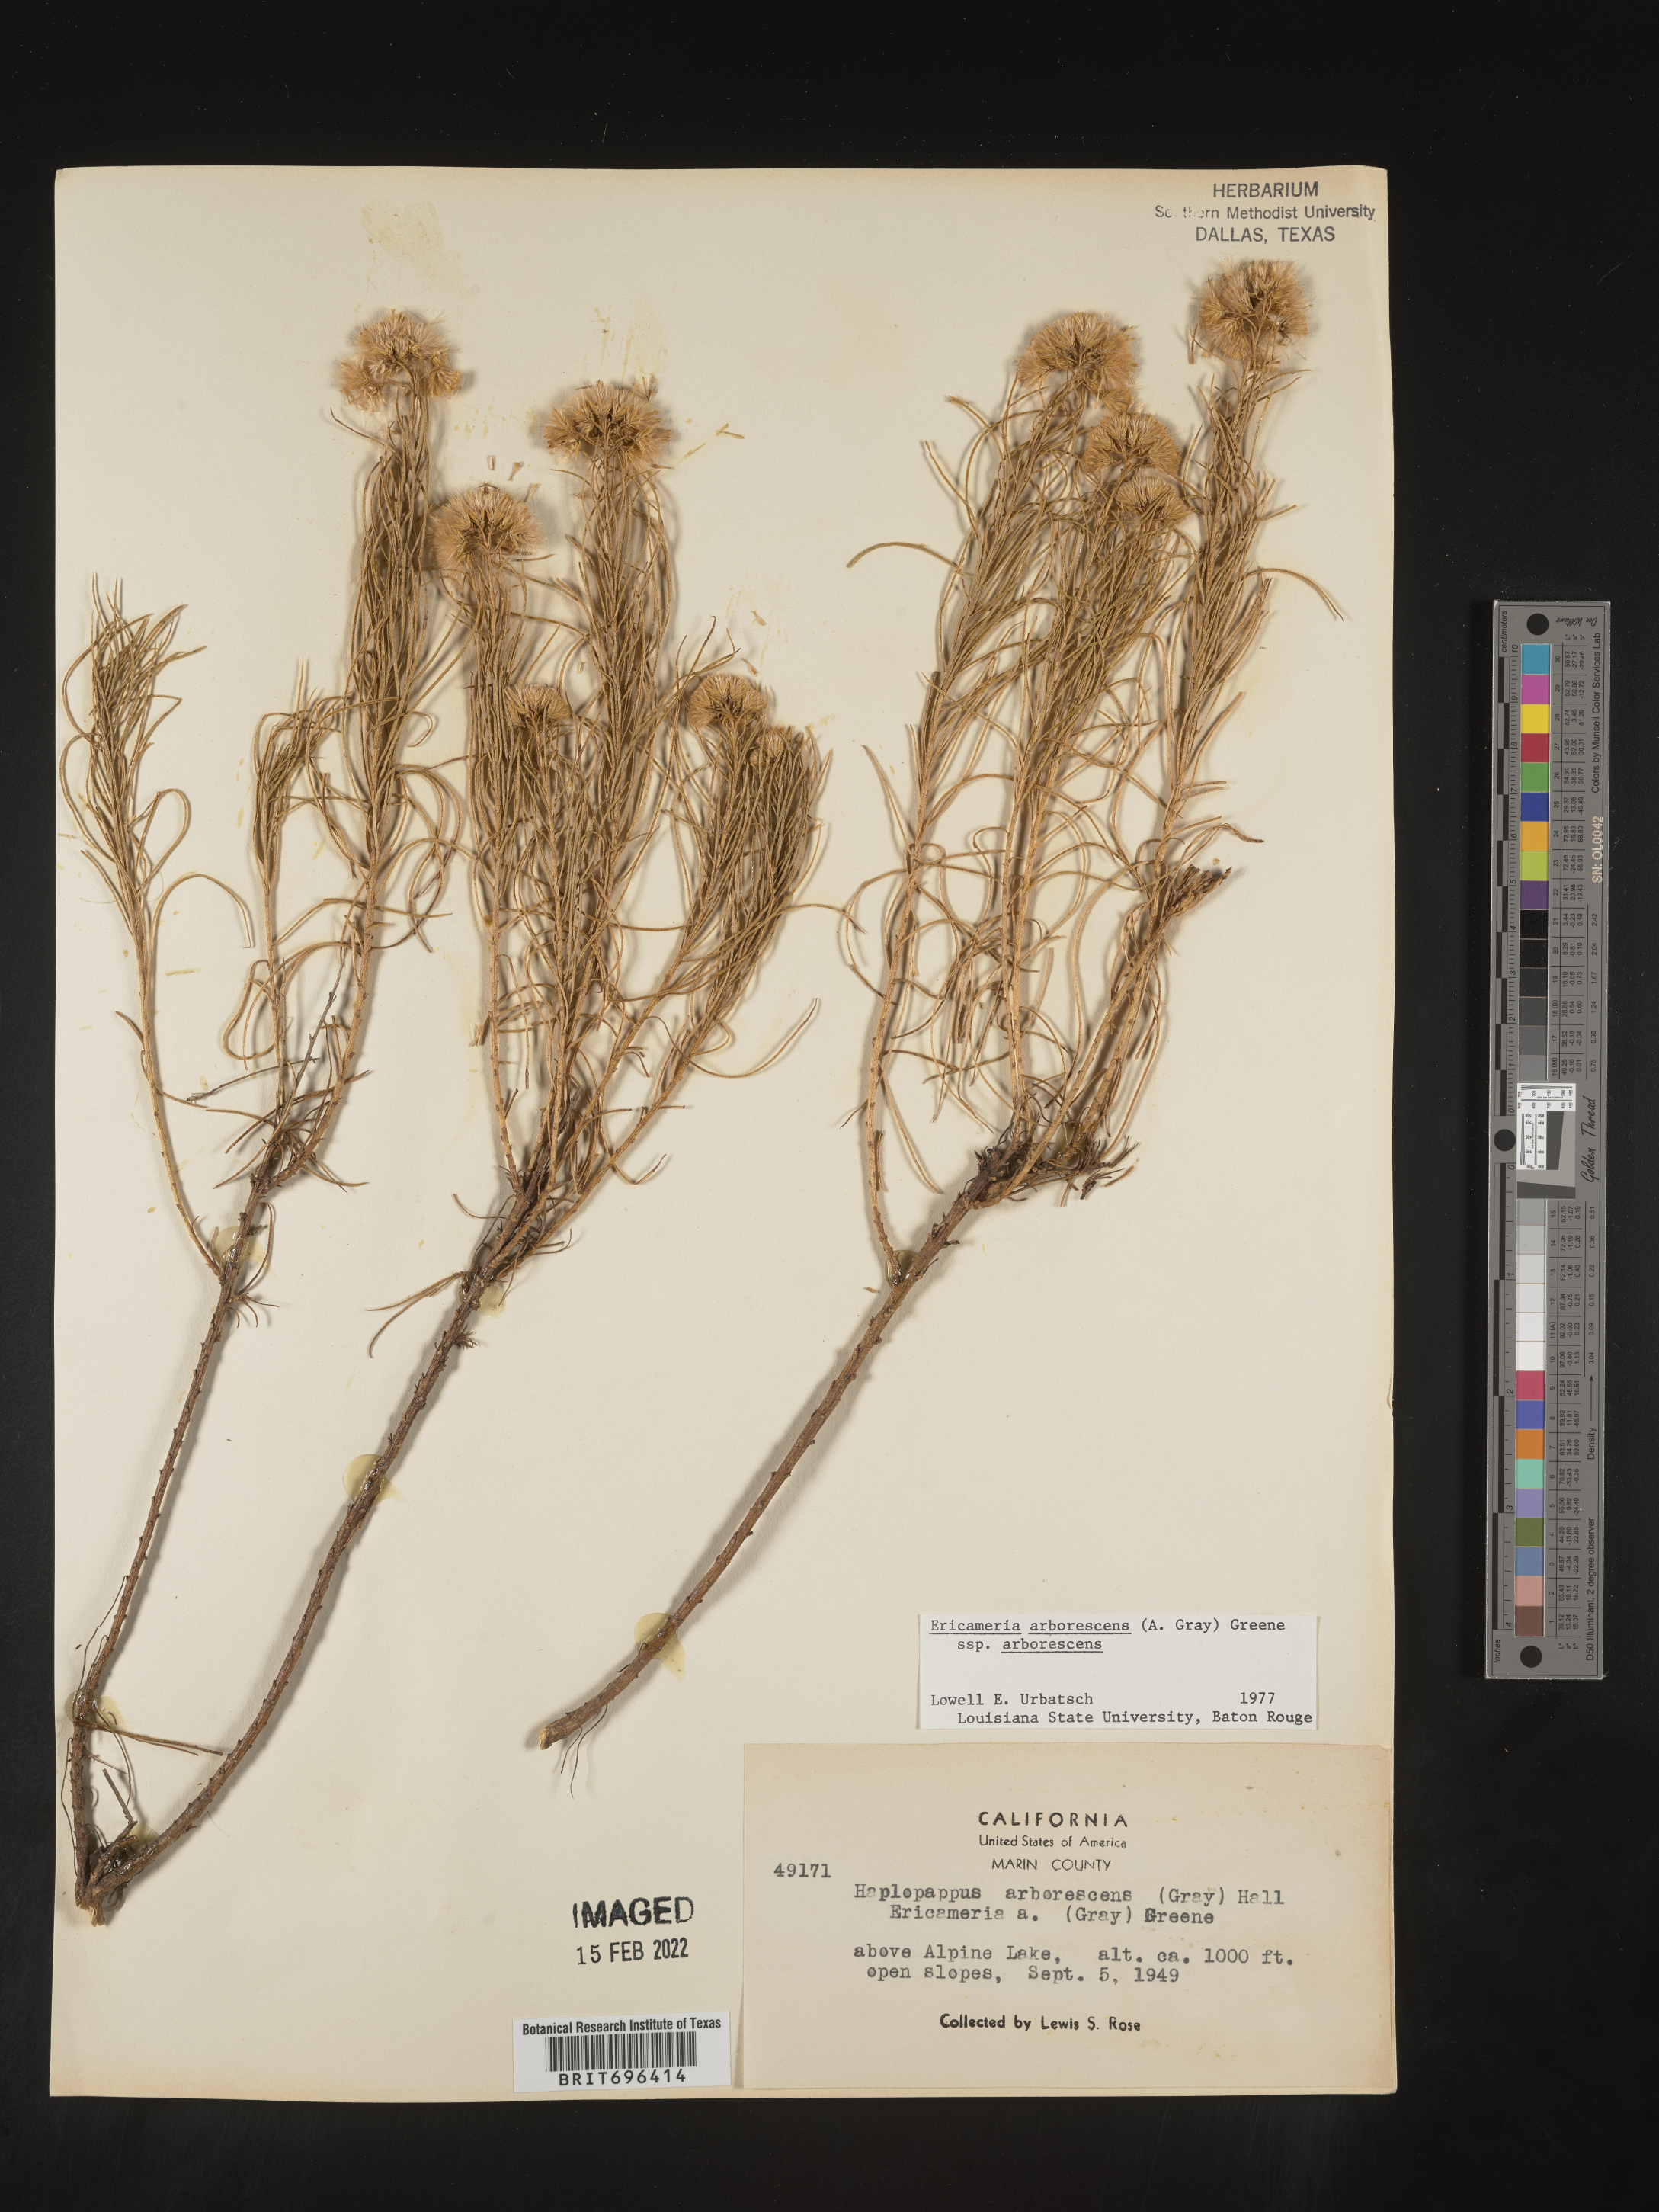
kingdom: Plantae
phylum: Tracheophyta
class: Magnoliopsida
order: Asterales
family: Asteraceae
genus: Ericameria
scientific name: Ericameria arborescens
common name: Goldenfleece
